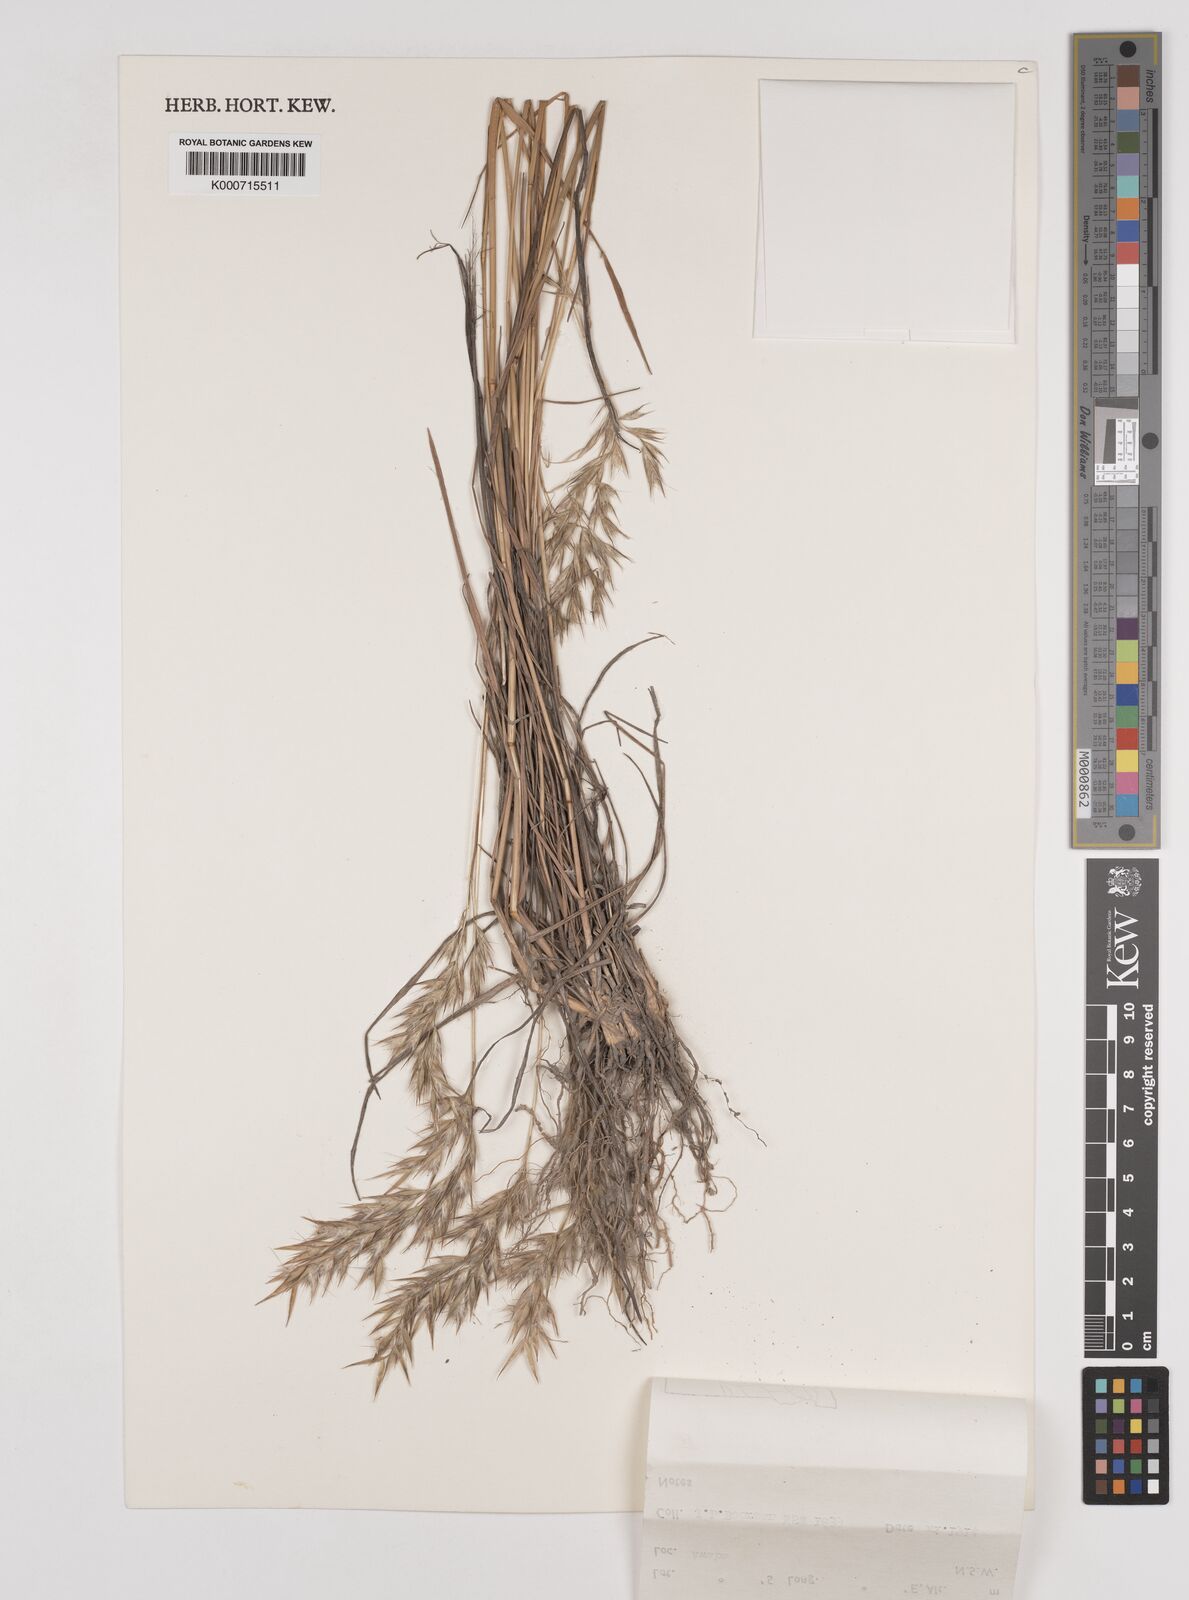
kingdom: Plantae
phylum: Tracheophyta
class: Liliopsida
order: Poales
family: Poaceae
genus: Rytidosperma
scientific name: Rytidosperma tenuius
